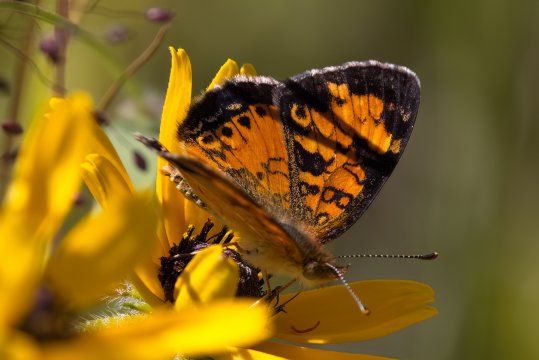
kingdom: Animalia
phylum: Arthropoda
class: Insecta
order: Lepidoptera
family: Nymphalidae
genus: Phyciodes
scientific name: Phyciodes tharos
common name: Northern Crescent
